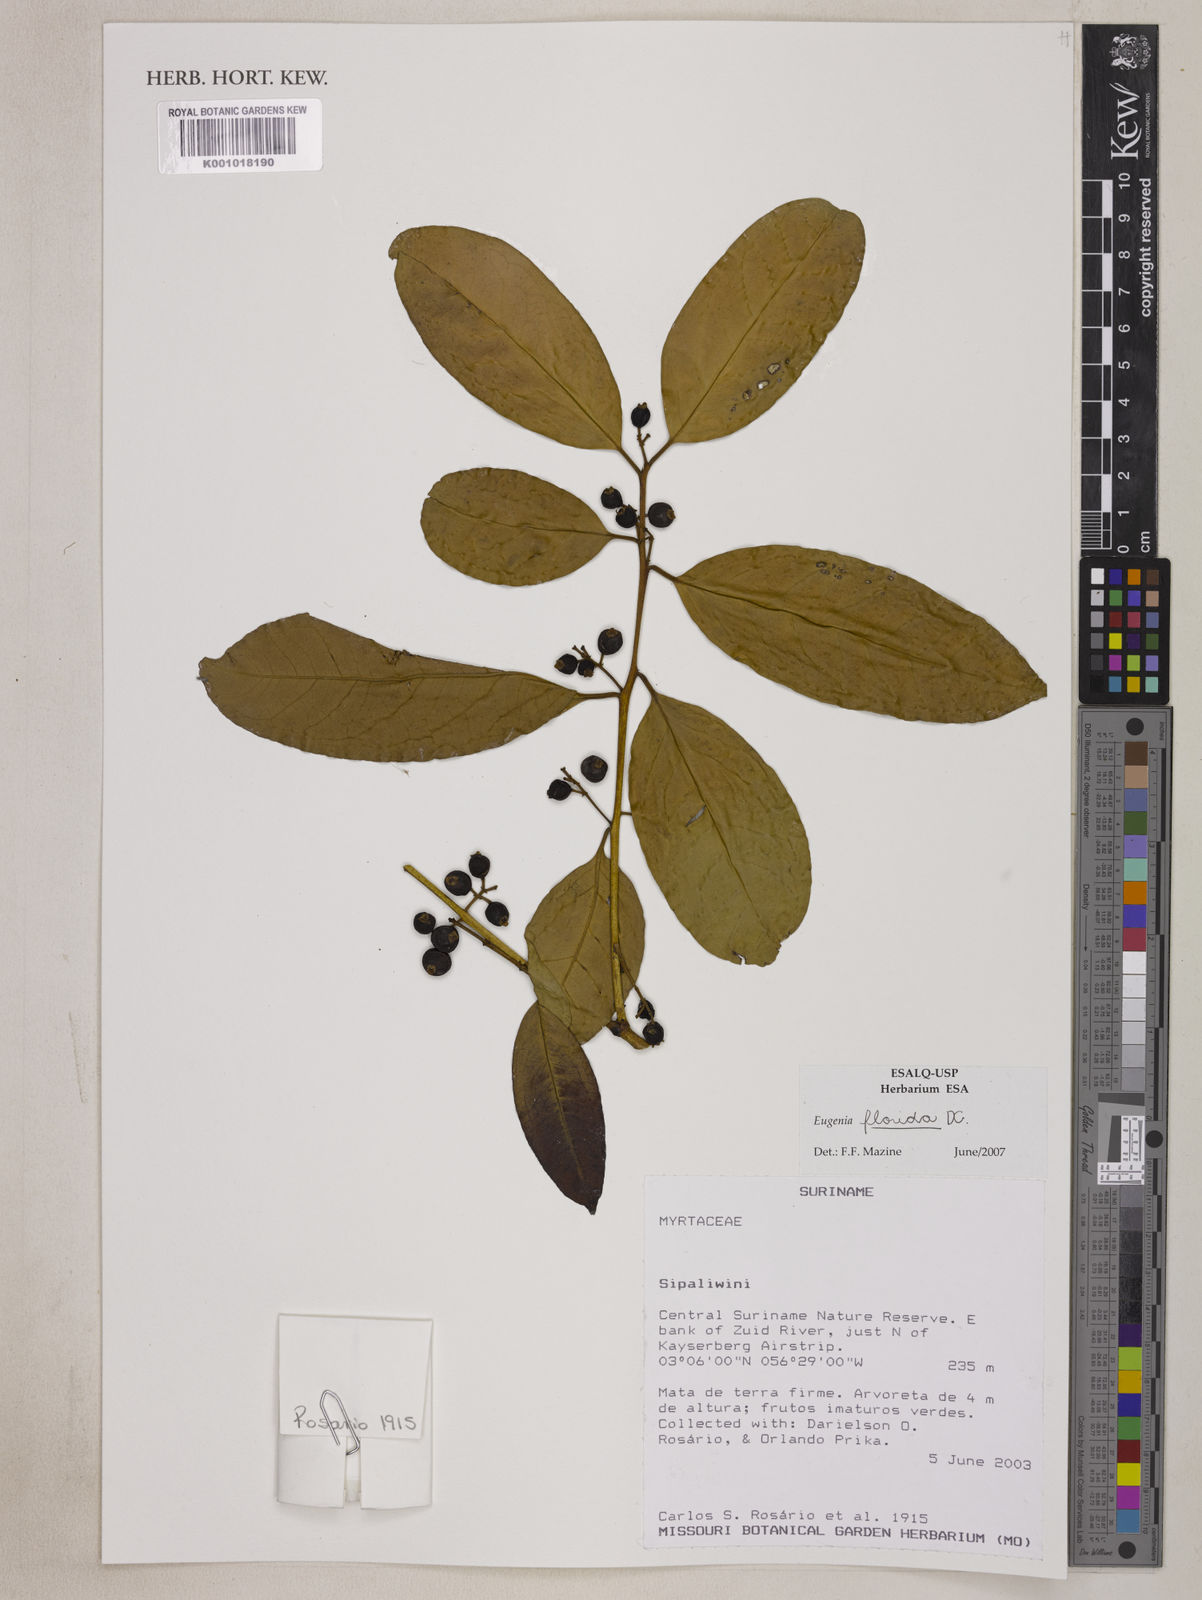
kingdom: Plantae
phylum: Tracheophyta
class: Magnoliopsida
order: Myrtales
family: Myrtaceae
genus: Eugenia
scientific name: Eugenia florida
